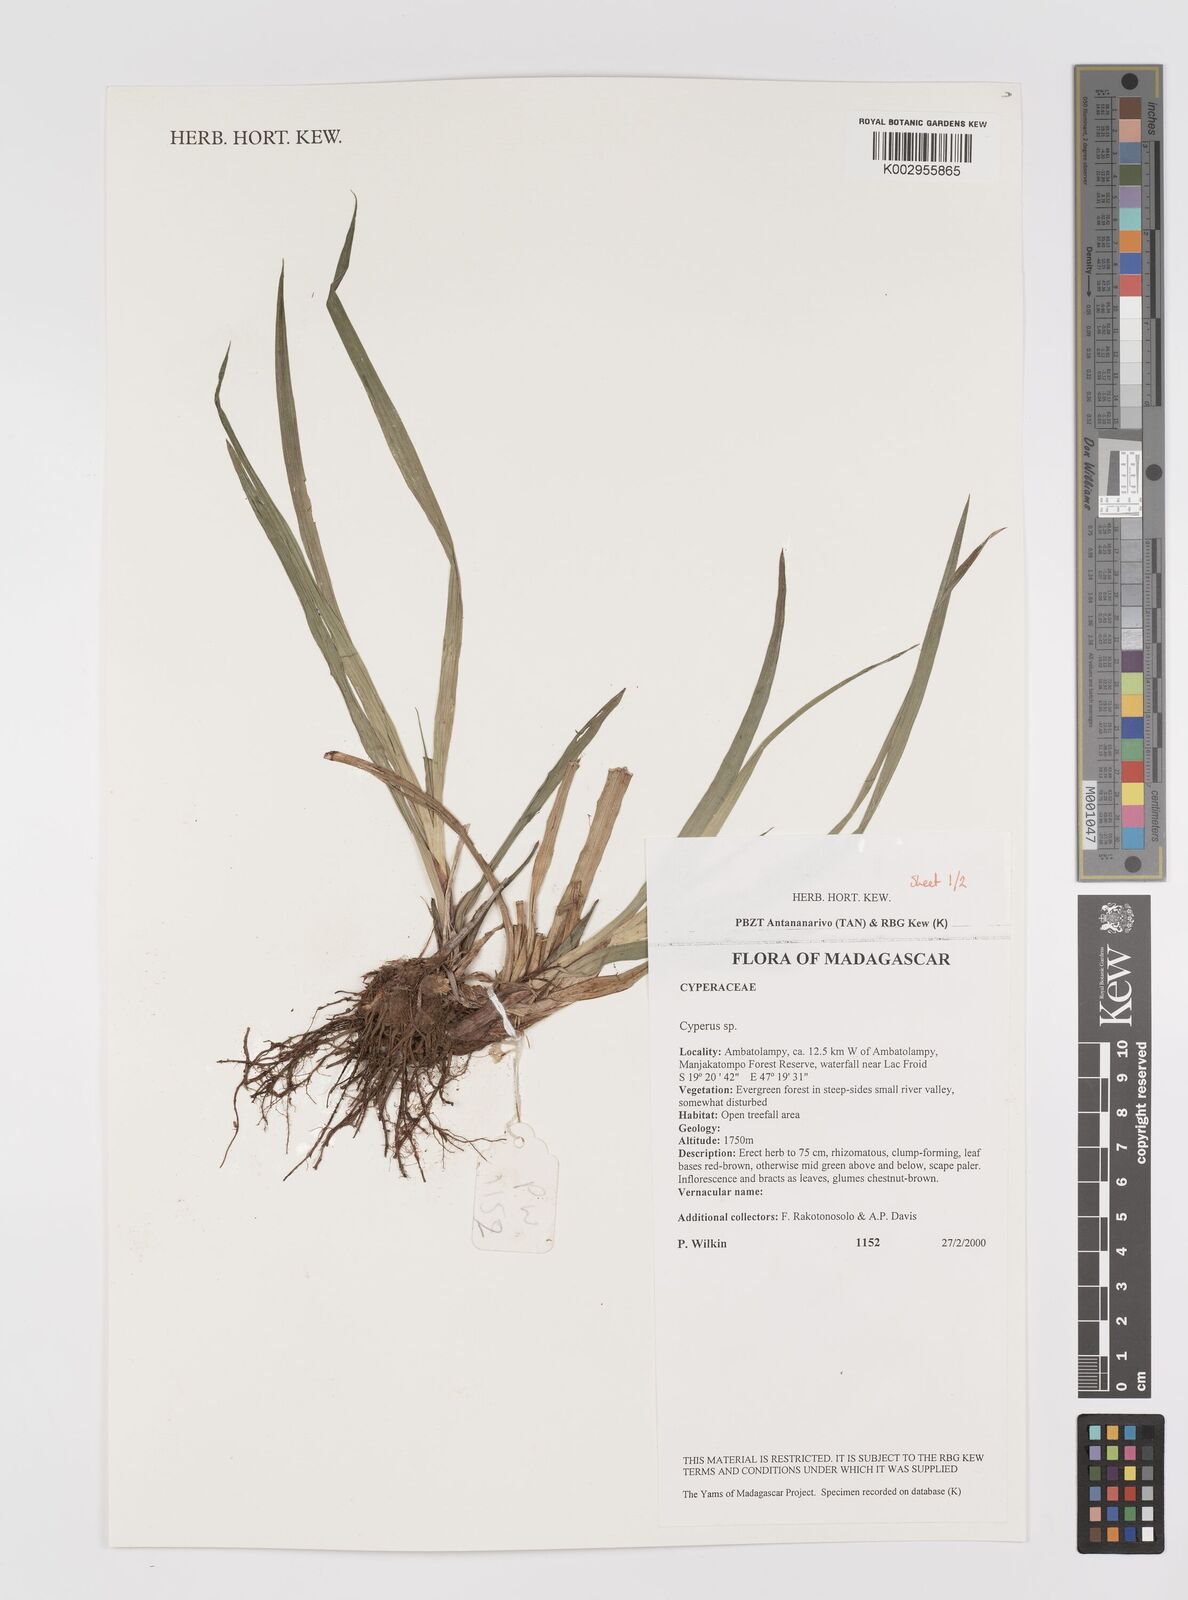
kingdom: Plantae
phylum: Tracheophyta
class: Liliopsida
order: Poales
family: Cyperaceae
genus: Cyperus
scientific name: Cyperus
